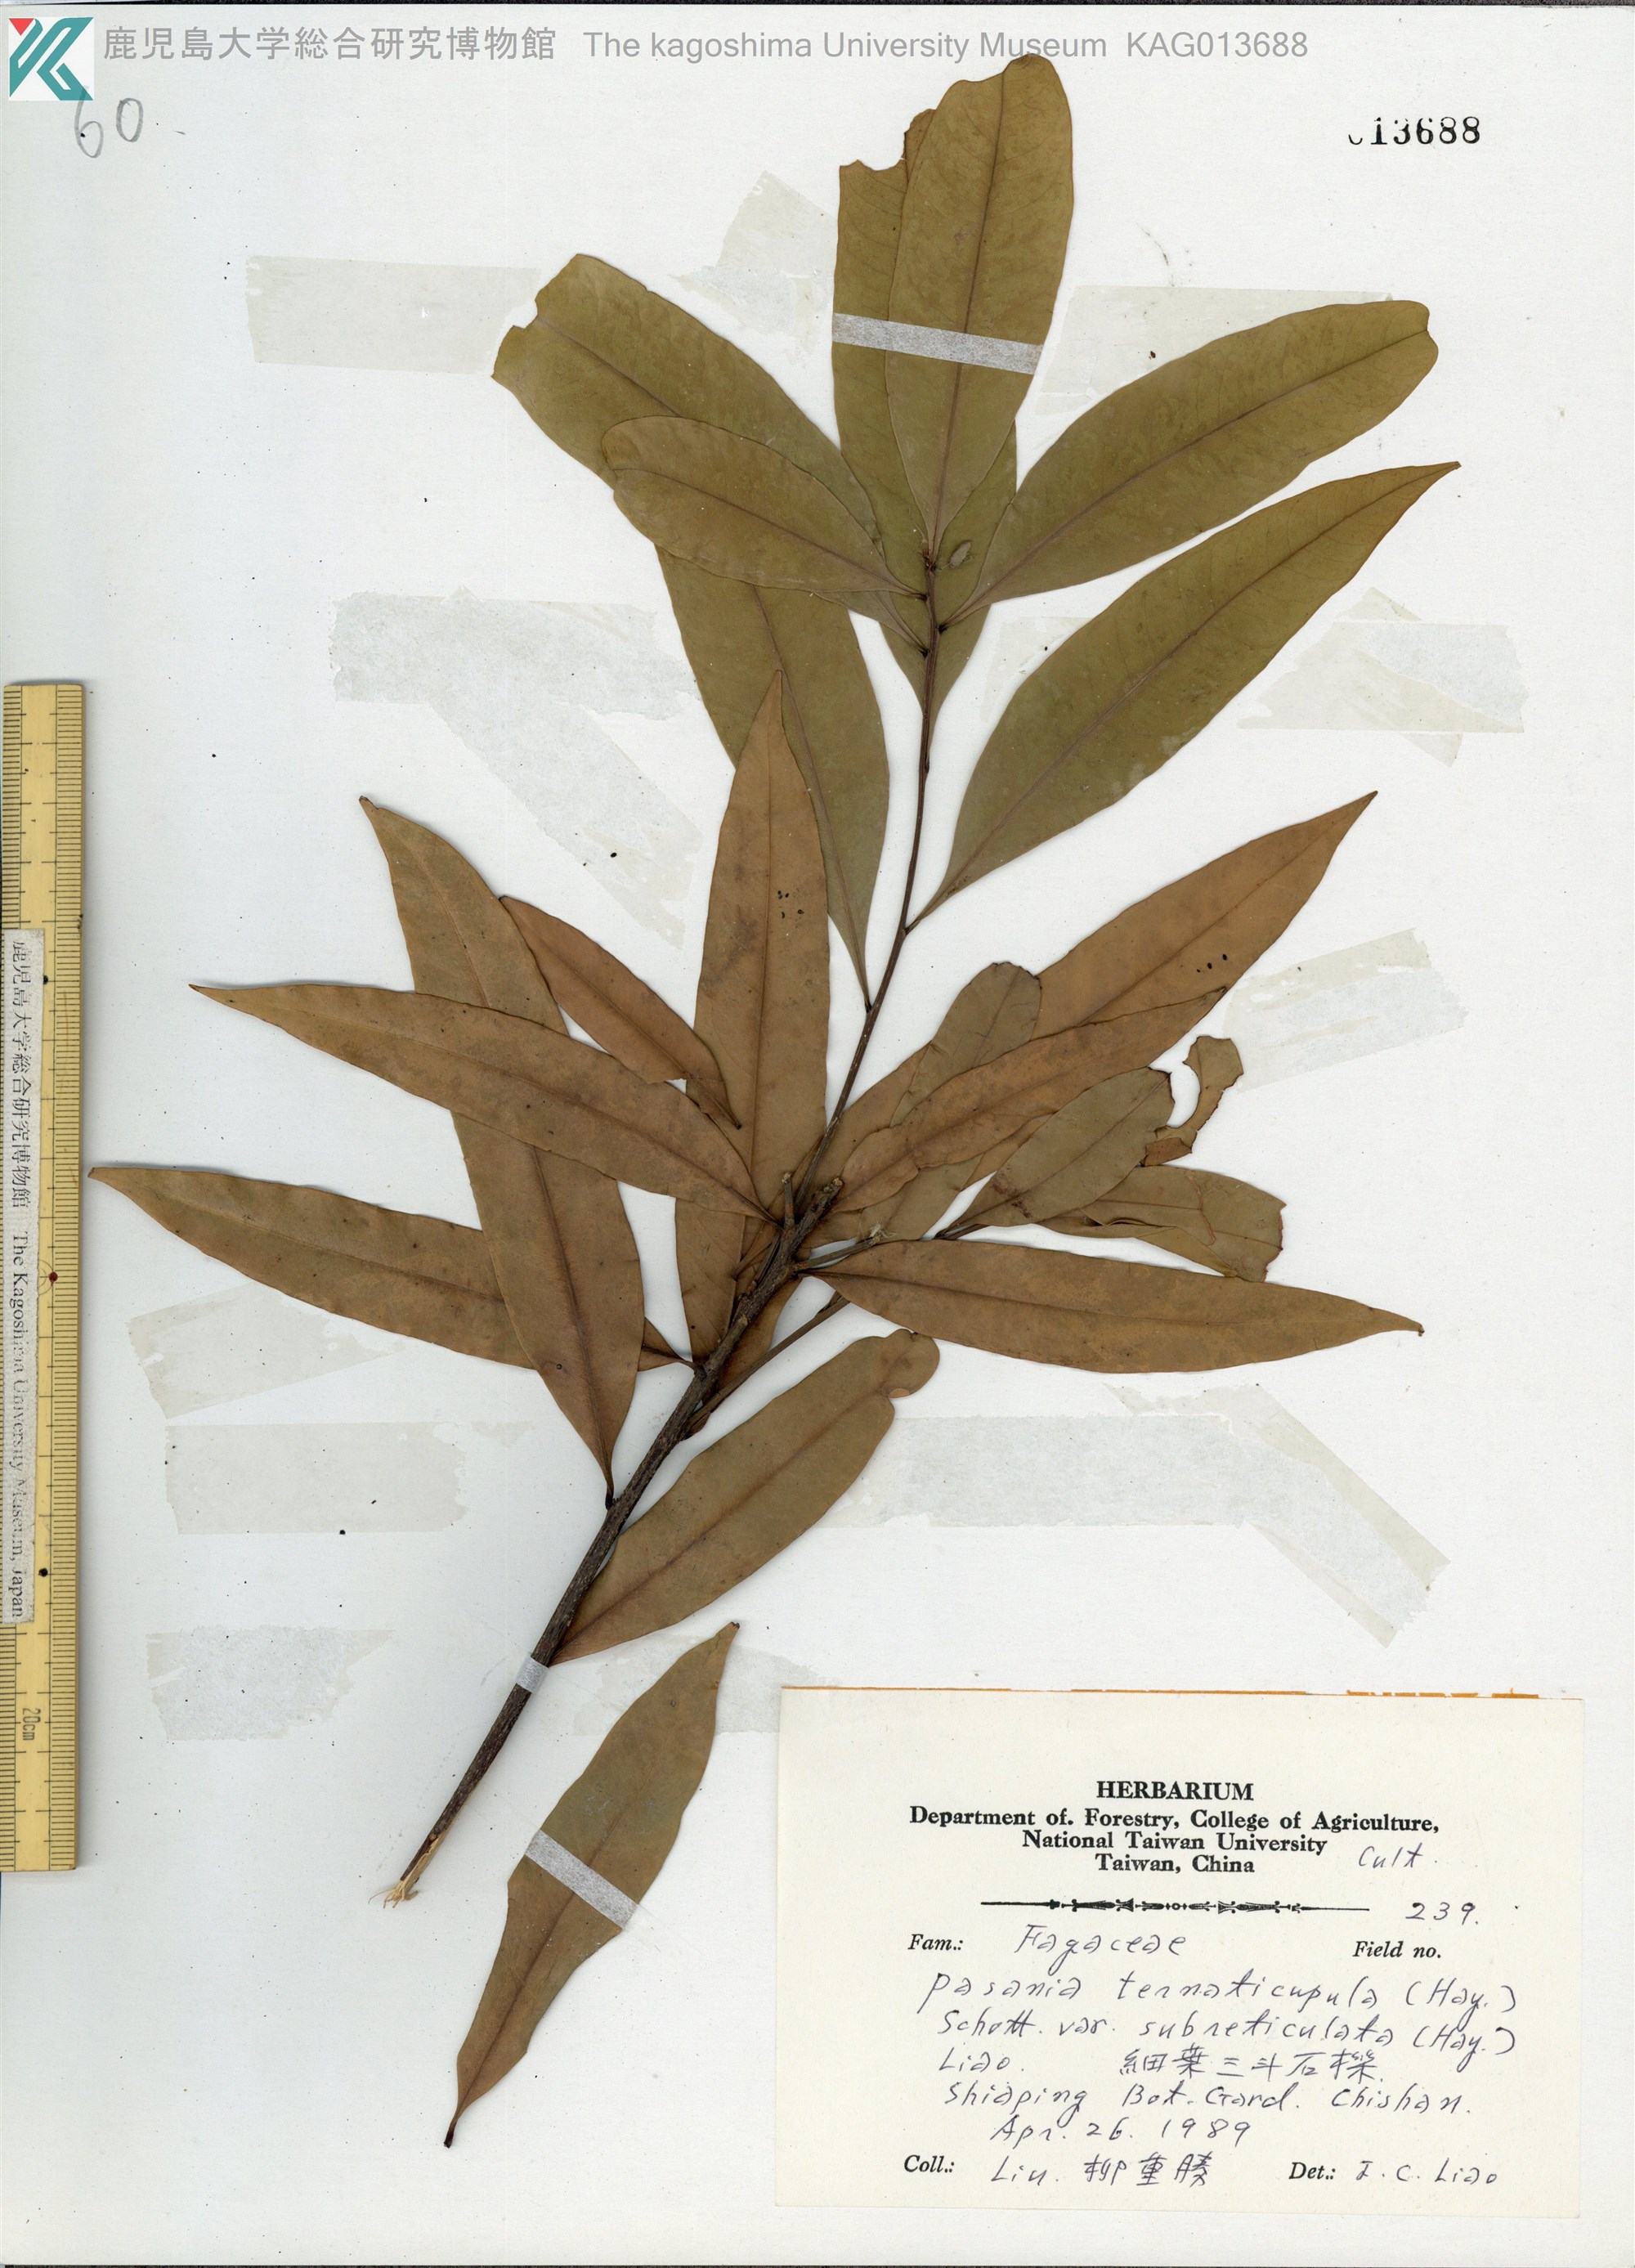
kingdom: Plantae
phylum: Tracheophyta
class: Magnoliopsida
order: Fagales
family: Fagaceae
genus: Lithocarpus
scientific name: Lithocarpus hancei
